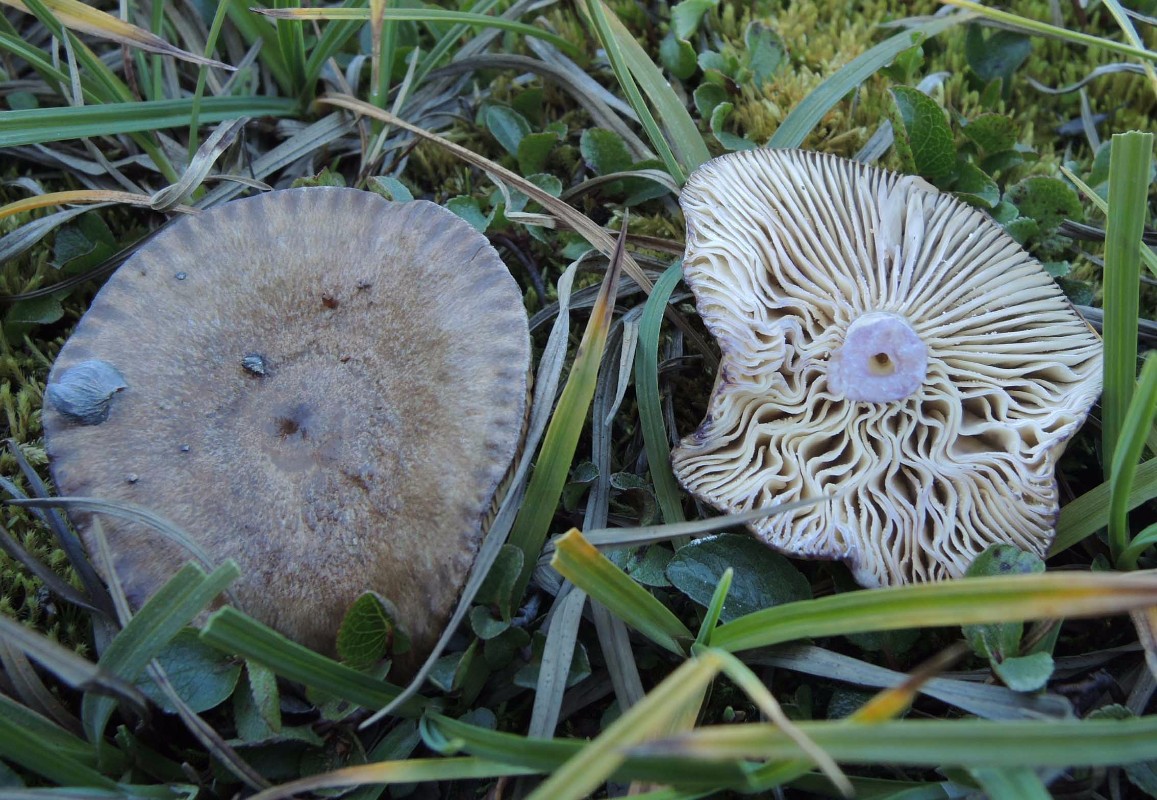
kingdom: Fungi
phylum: Basidiomycota
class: Agaricomycetes
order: Russulales
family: Russulaceae
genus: Lactarius
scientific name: Lactarius brunneoviolaceus
